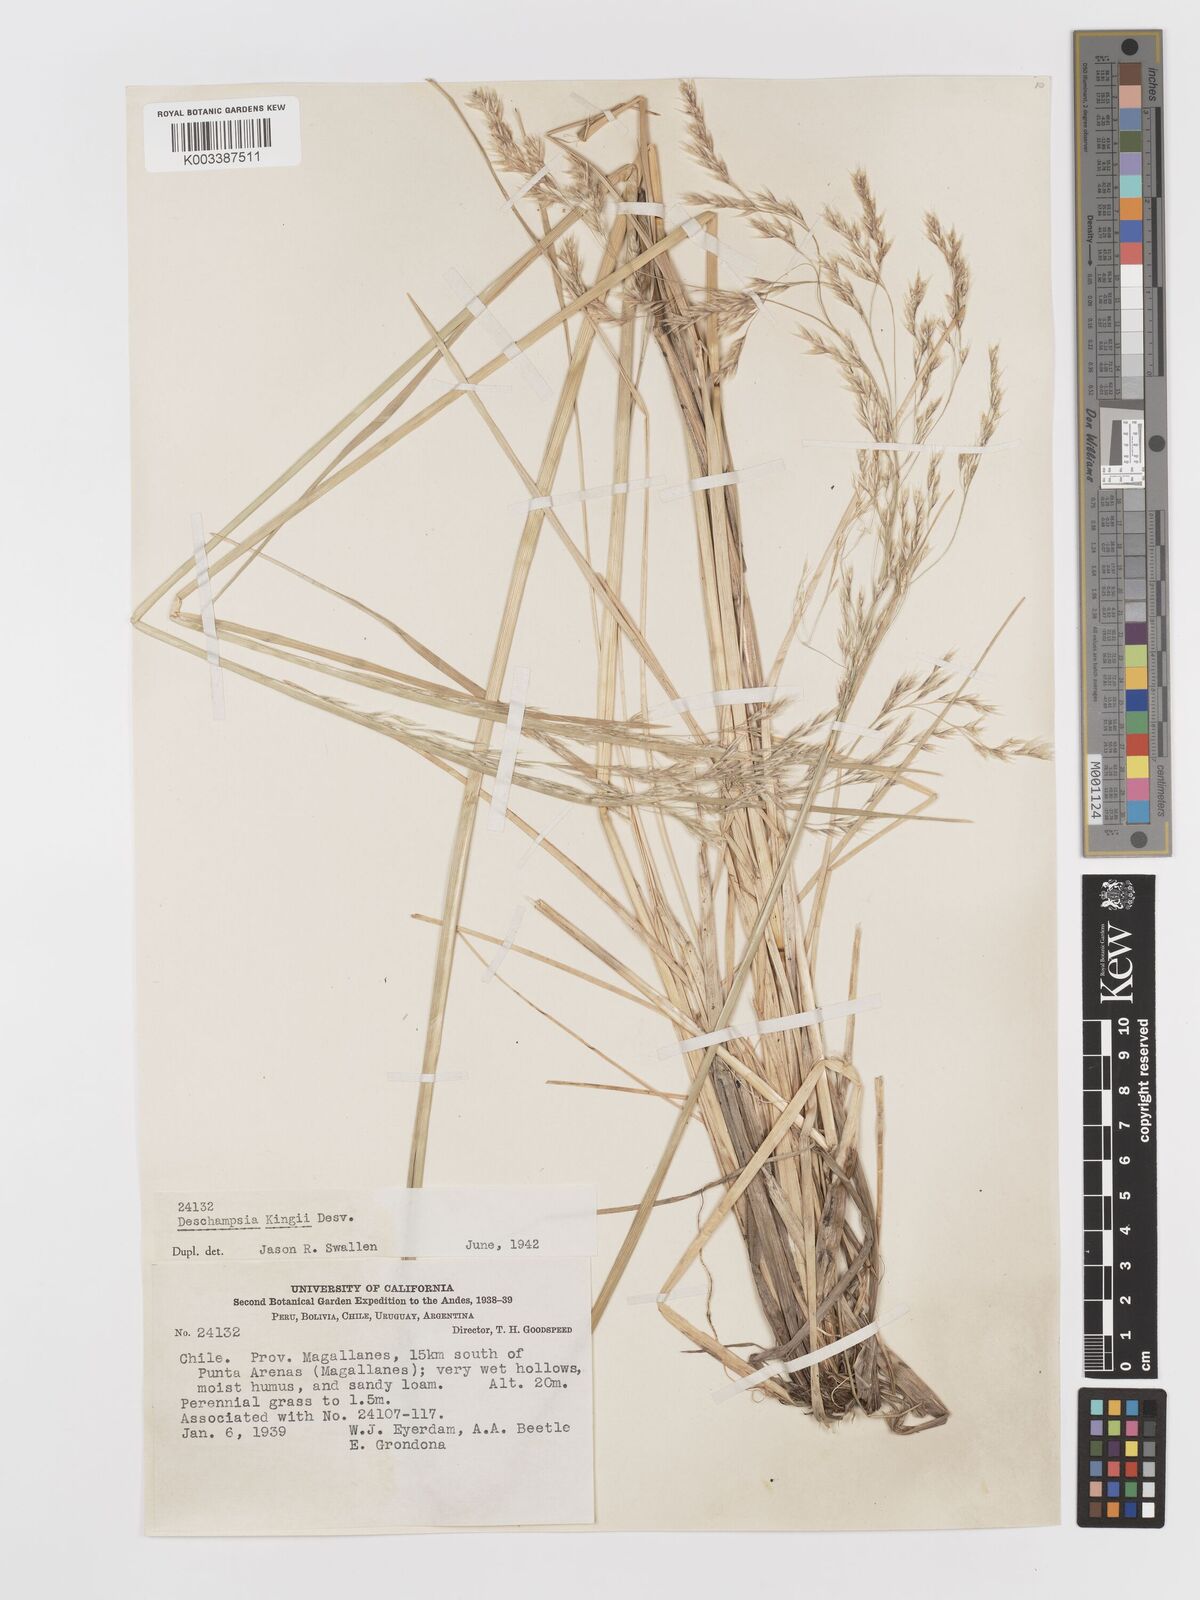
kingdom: Plantae
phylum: Tracheophyta
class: Liliopsida
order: Poales
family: Poaceae
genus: Deschampsia
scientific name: Deschampsia kingii
